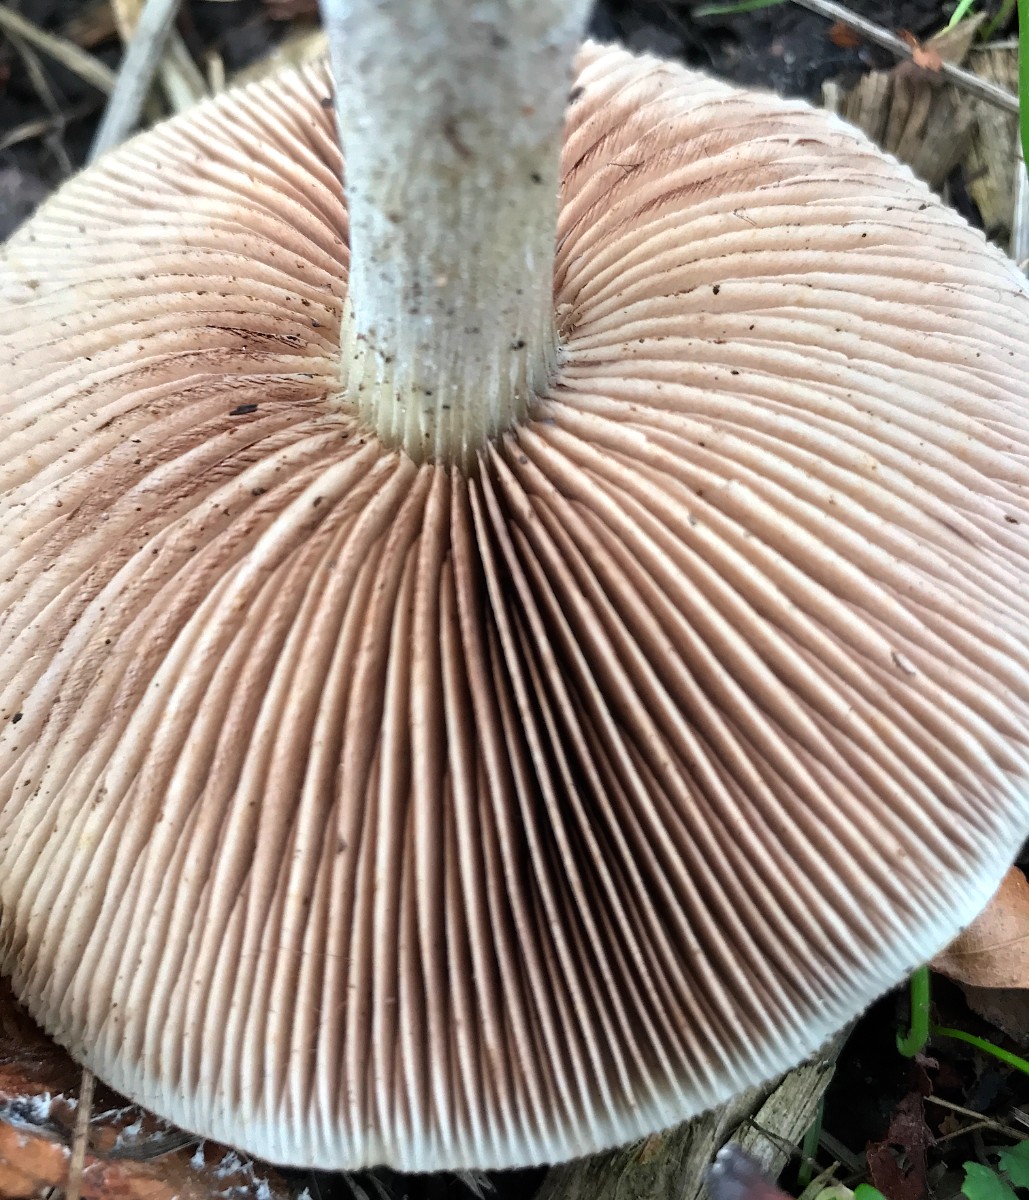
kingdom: Fungi
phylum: Basidiomycota
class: Agaricomycetes
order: Agaricales
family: Strophariaceae
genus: Stropharia
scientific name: Stropharia cyanea
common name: blågrøn bredblad
